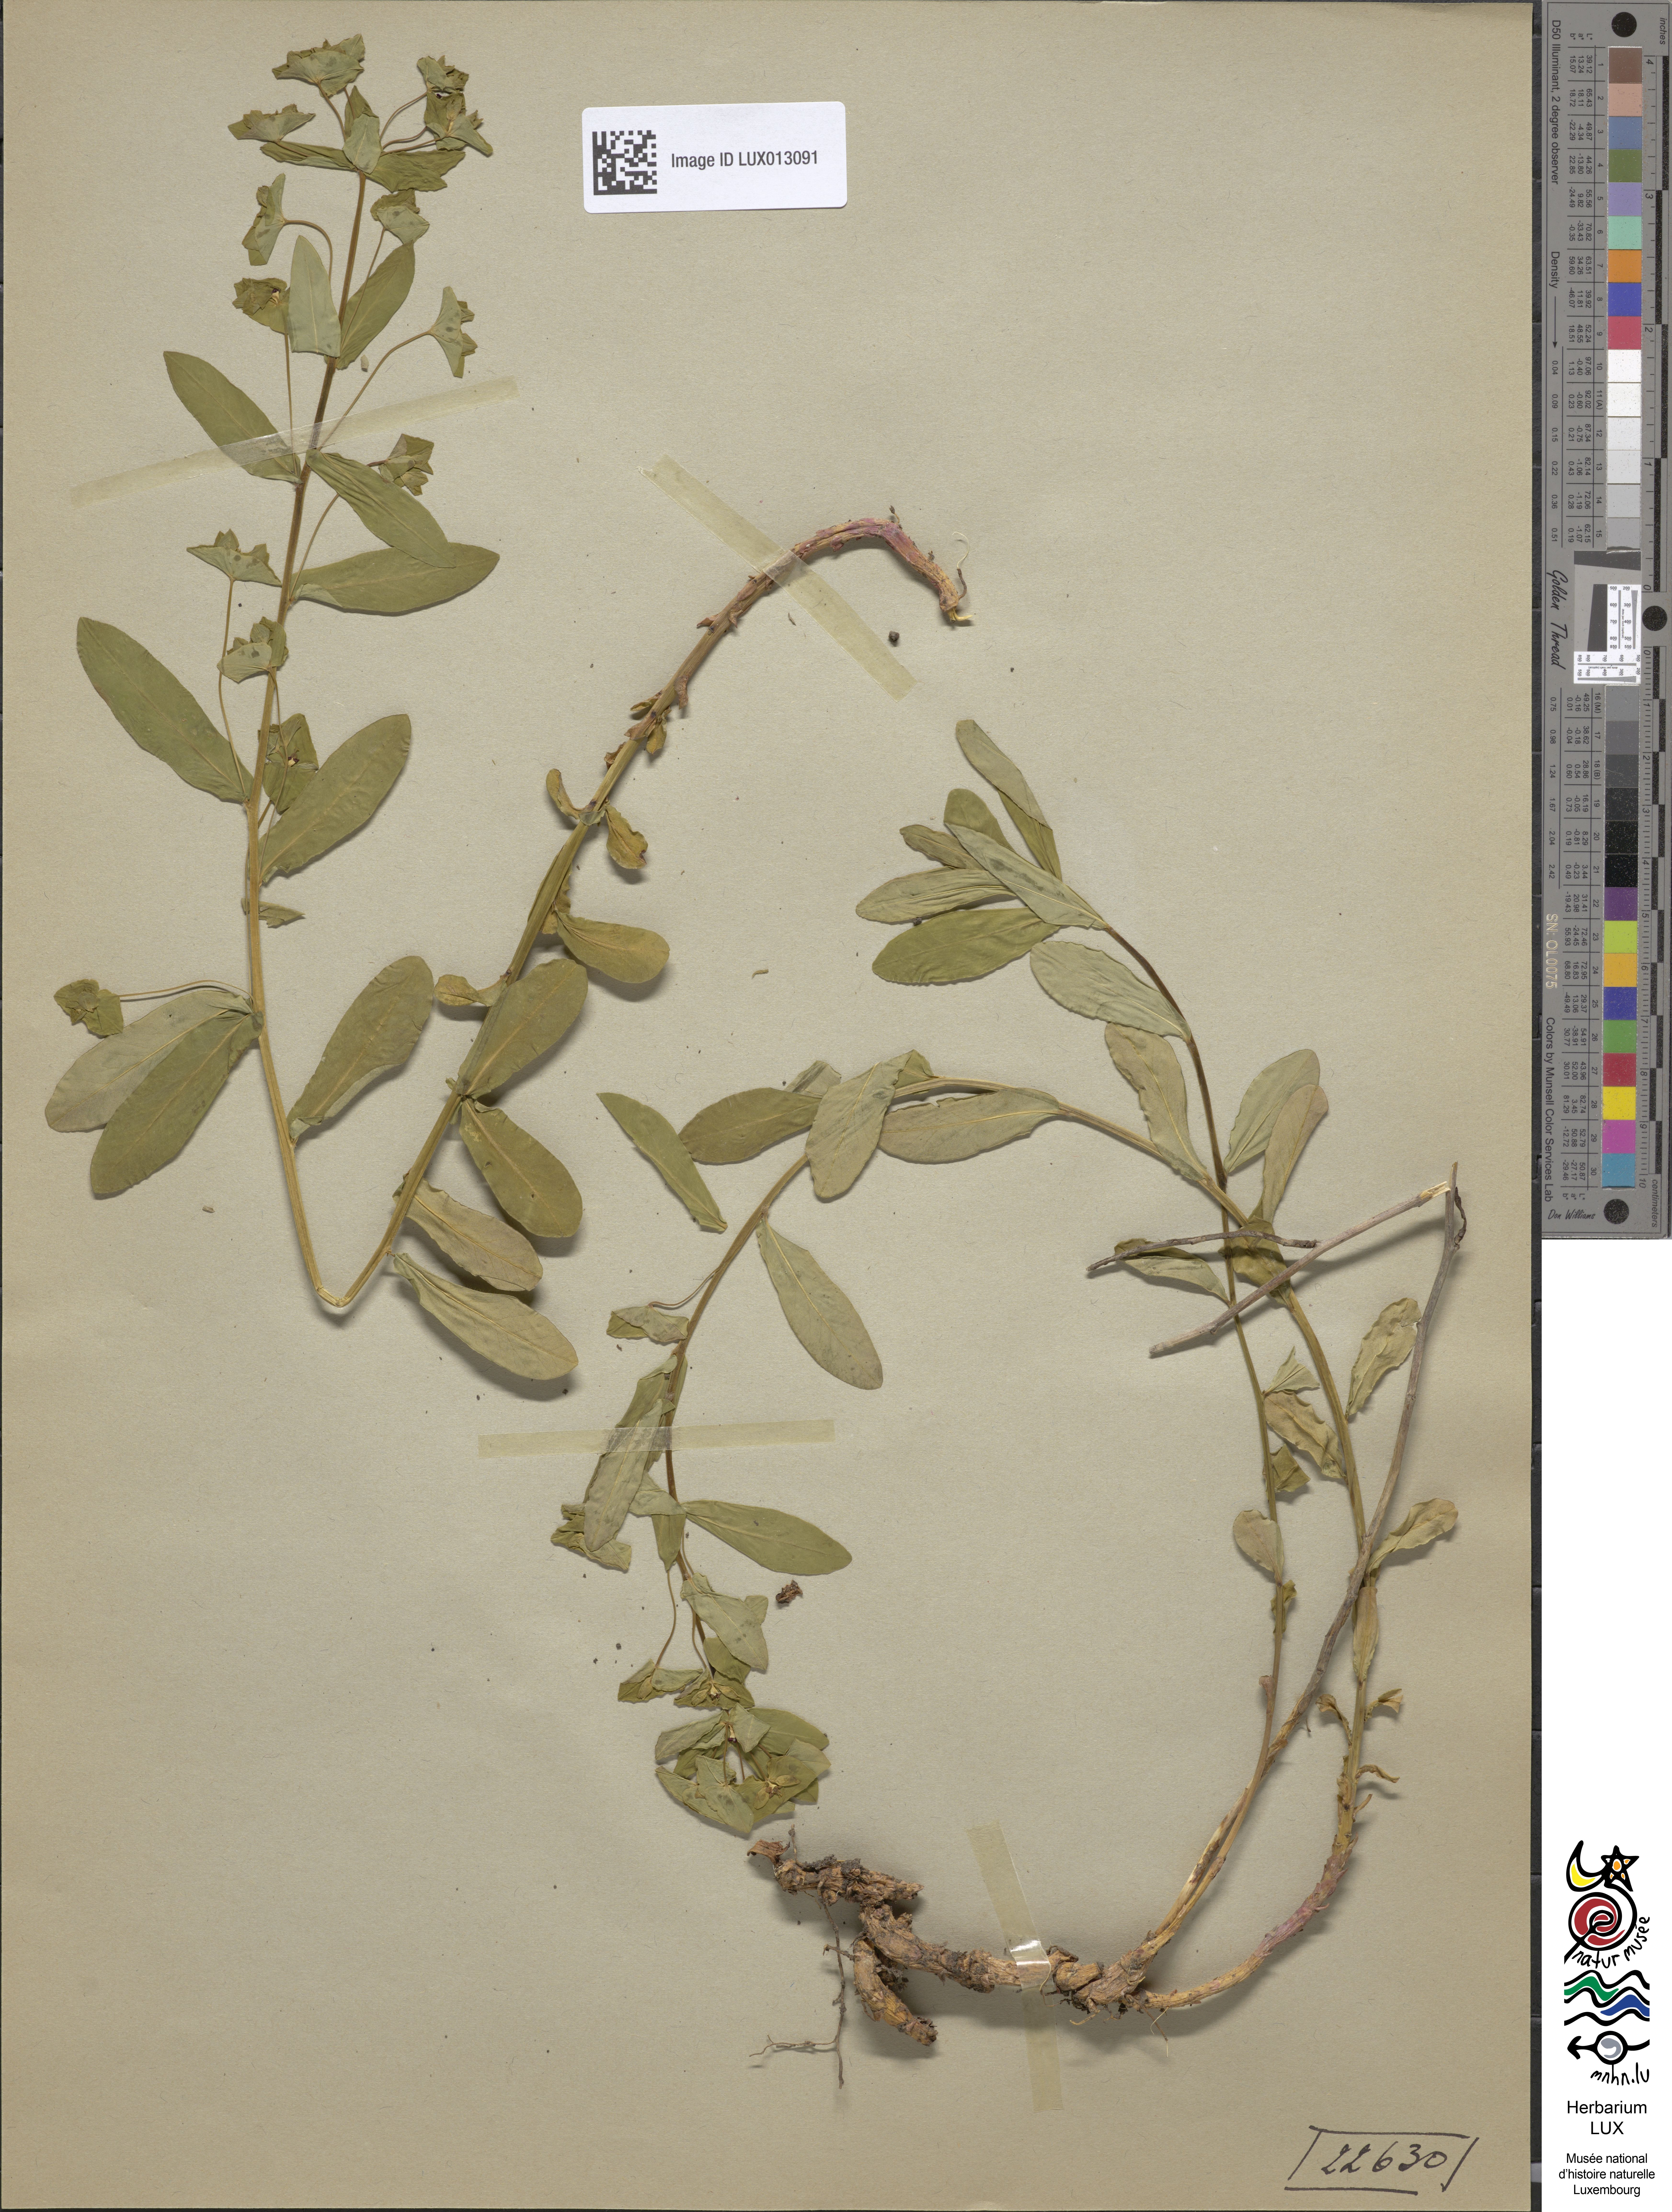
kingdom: Plantae
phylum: Tracheophyta
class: Magnoliopsida
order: Malpighiales
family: Euphorbiaceae
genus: Euphorbia
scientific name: Euphorbia dulcis
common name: Sweet spurge
